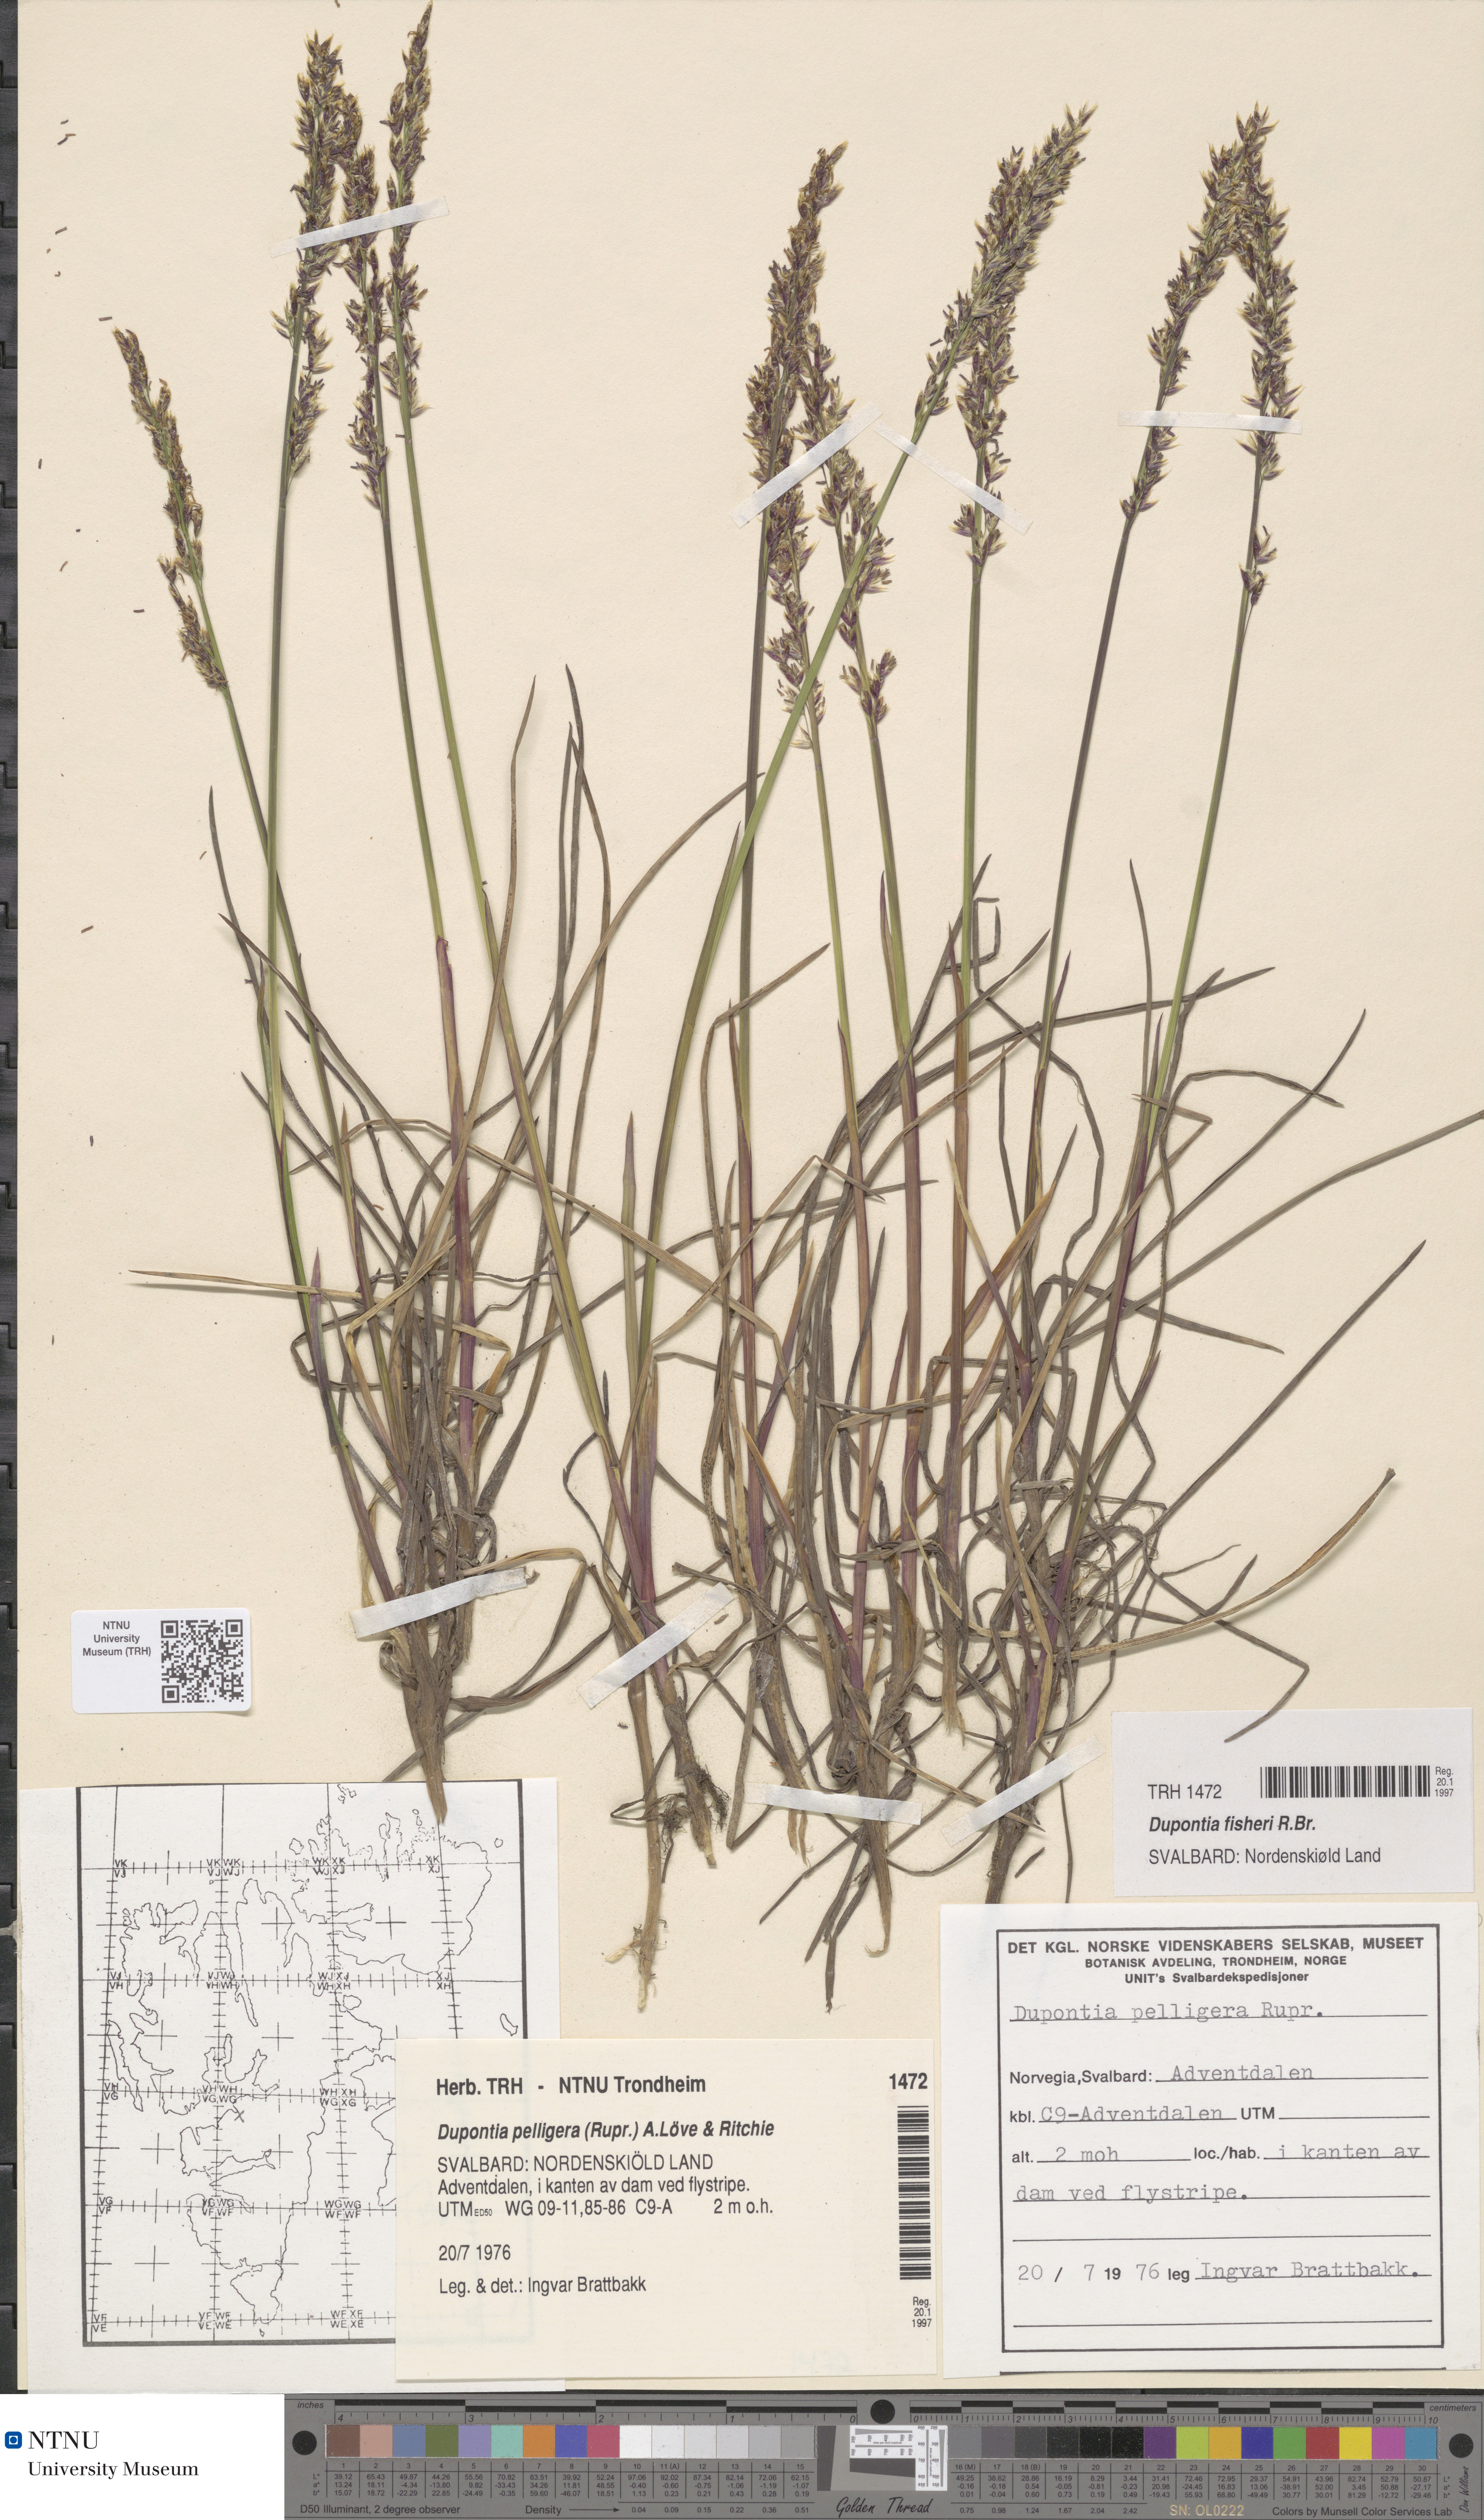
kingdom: Plantae
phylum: Tracheophyta
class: Liliopsida
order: Poales
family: Poaceae
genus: Dupontia
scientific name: Dupontia fisheri
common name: Tundra grass
